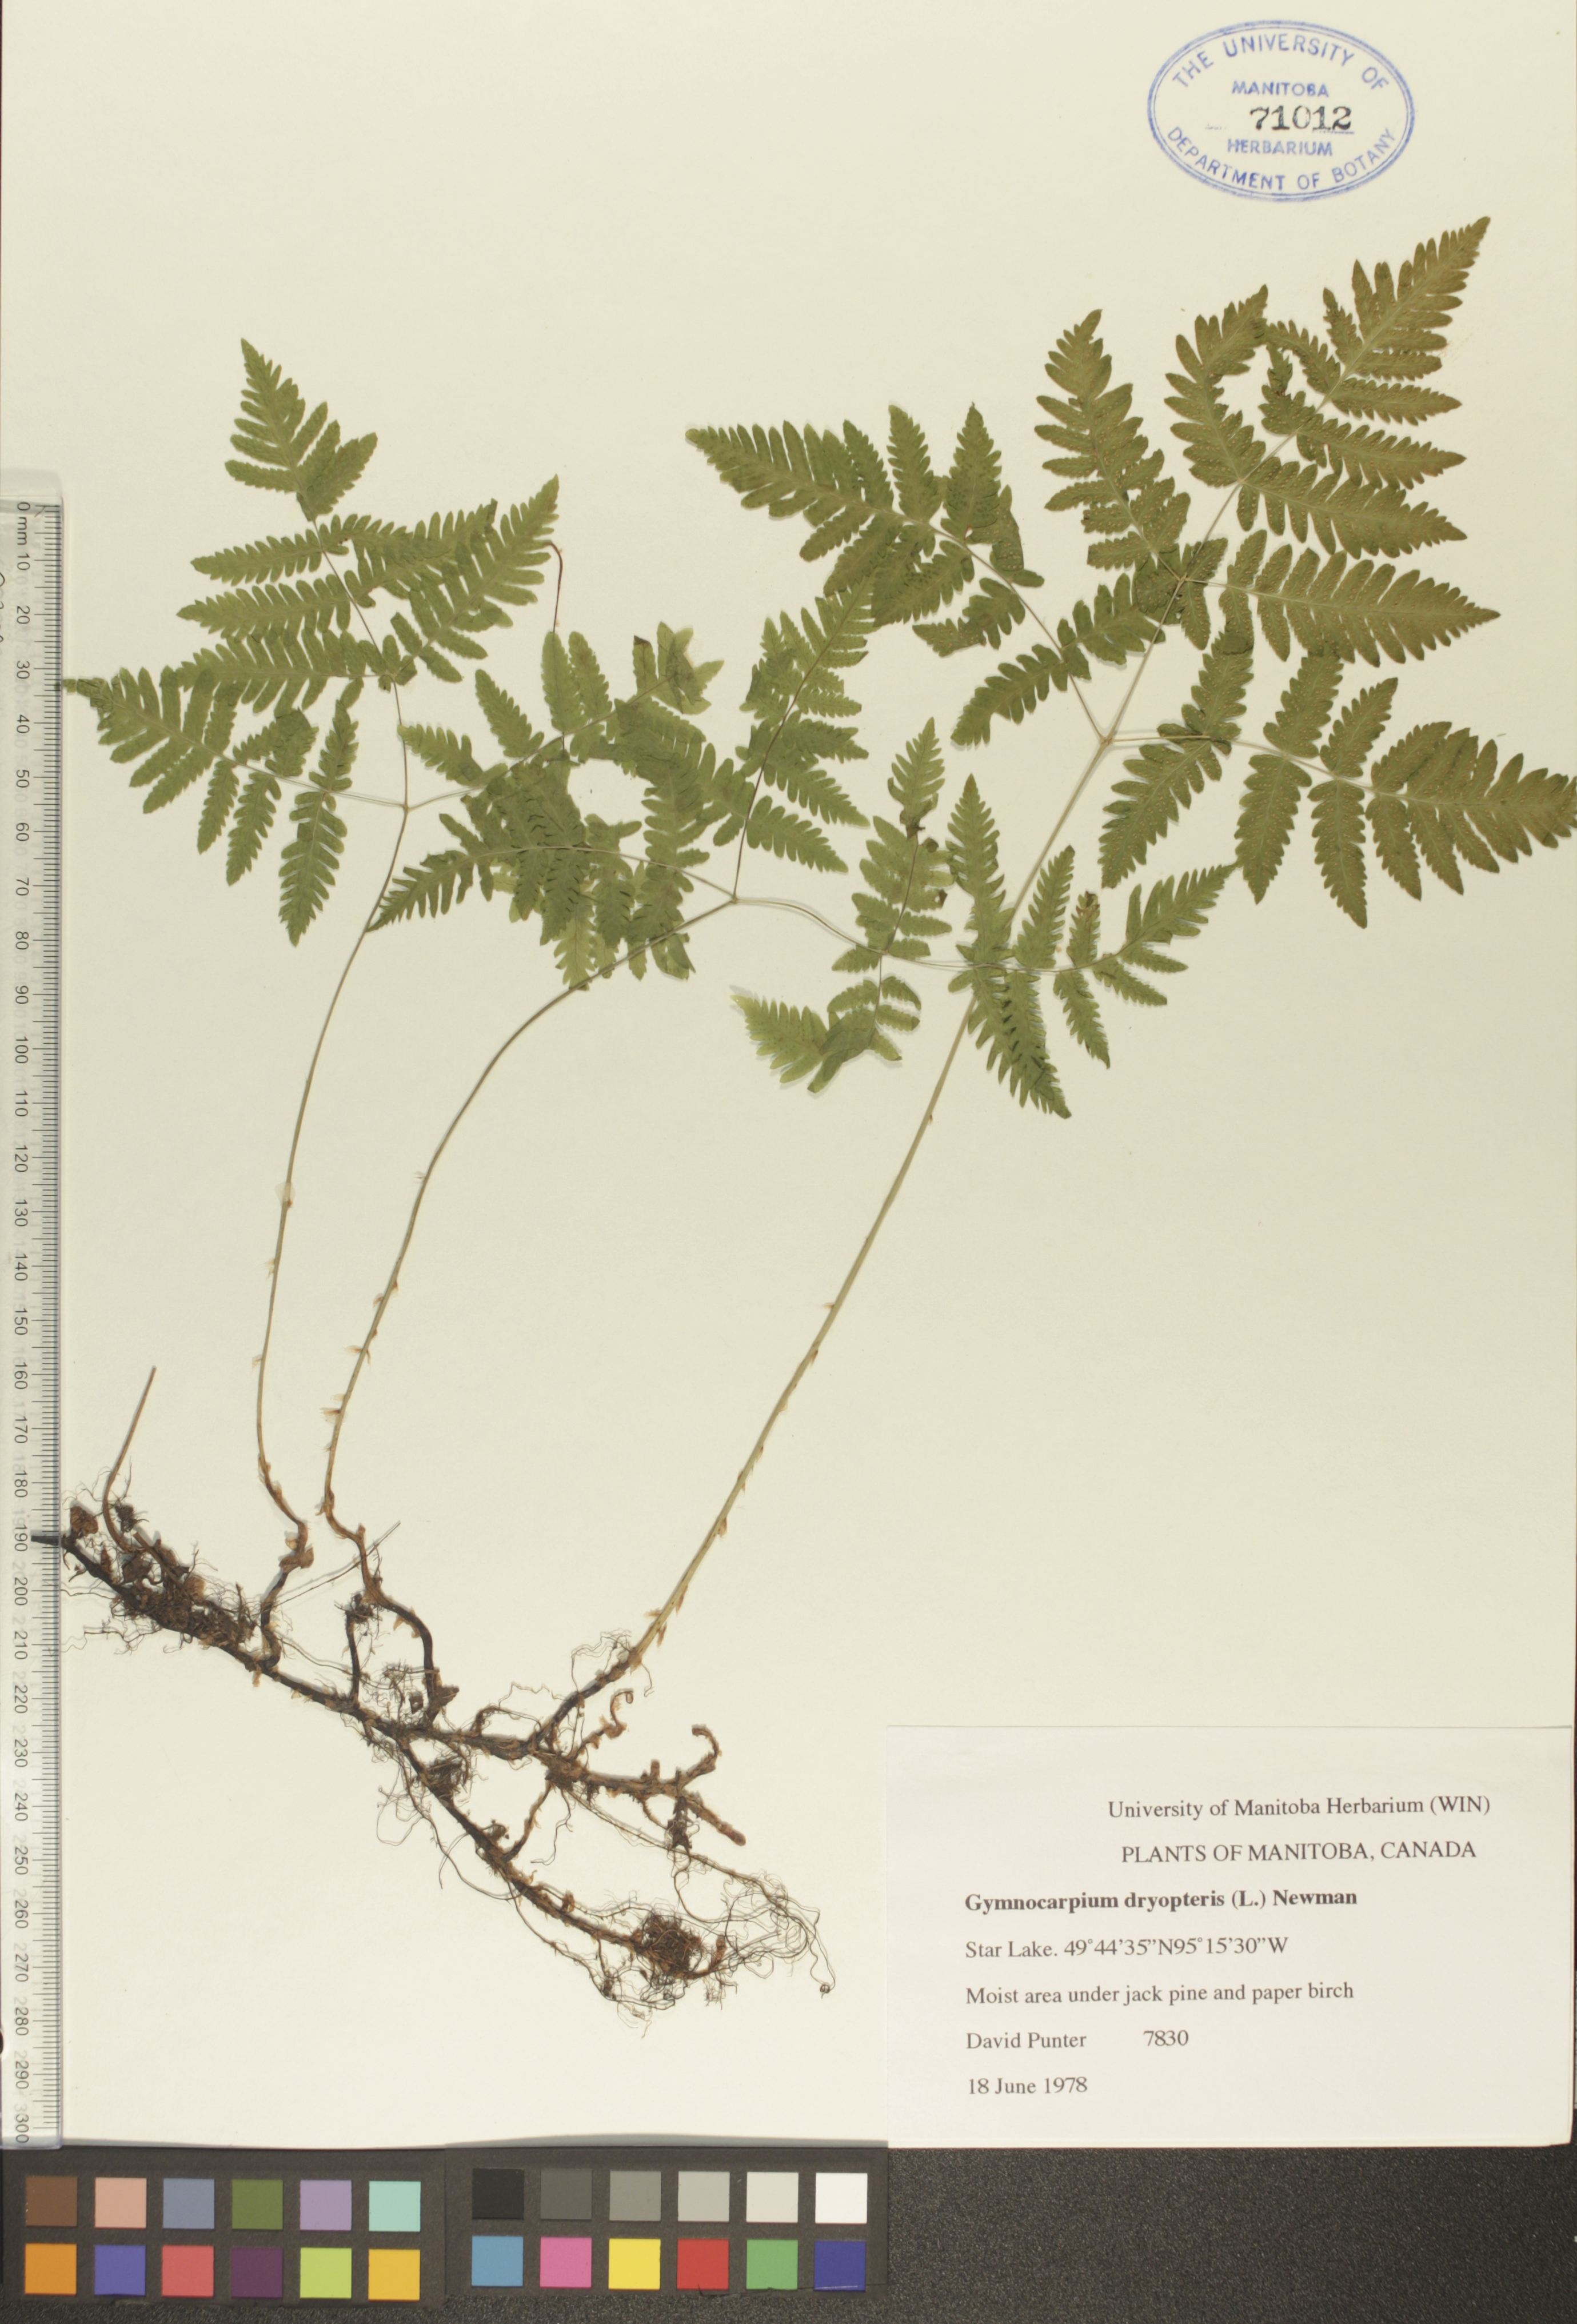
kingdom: Plantae
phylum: Tracheophyta
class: Polypodiopsida
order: Polypodiales
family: Cystopteridaceae
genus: Gymnocarpium
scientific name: Gymnocarpium dryopteris
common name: Oak fern
